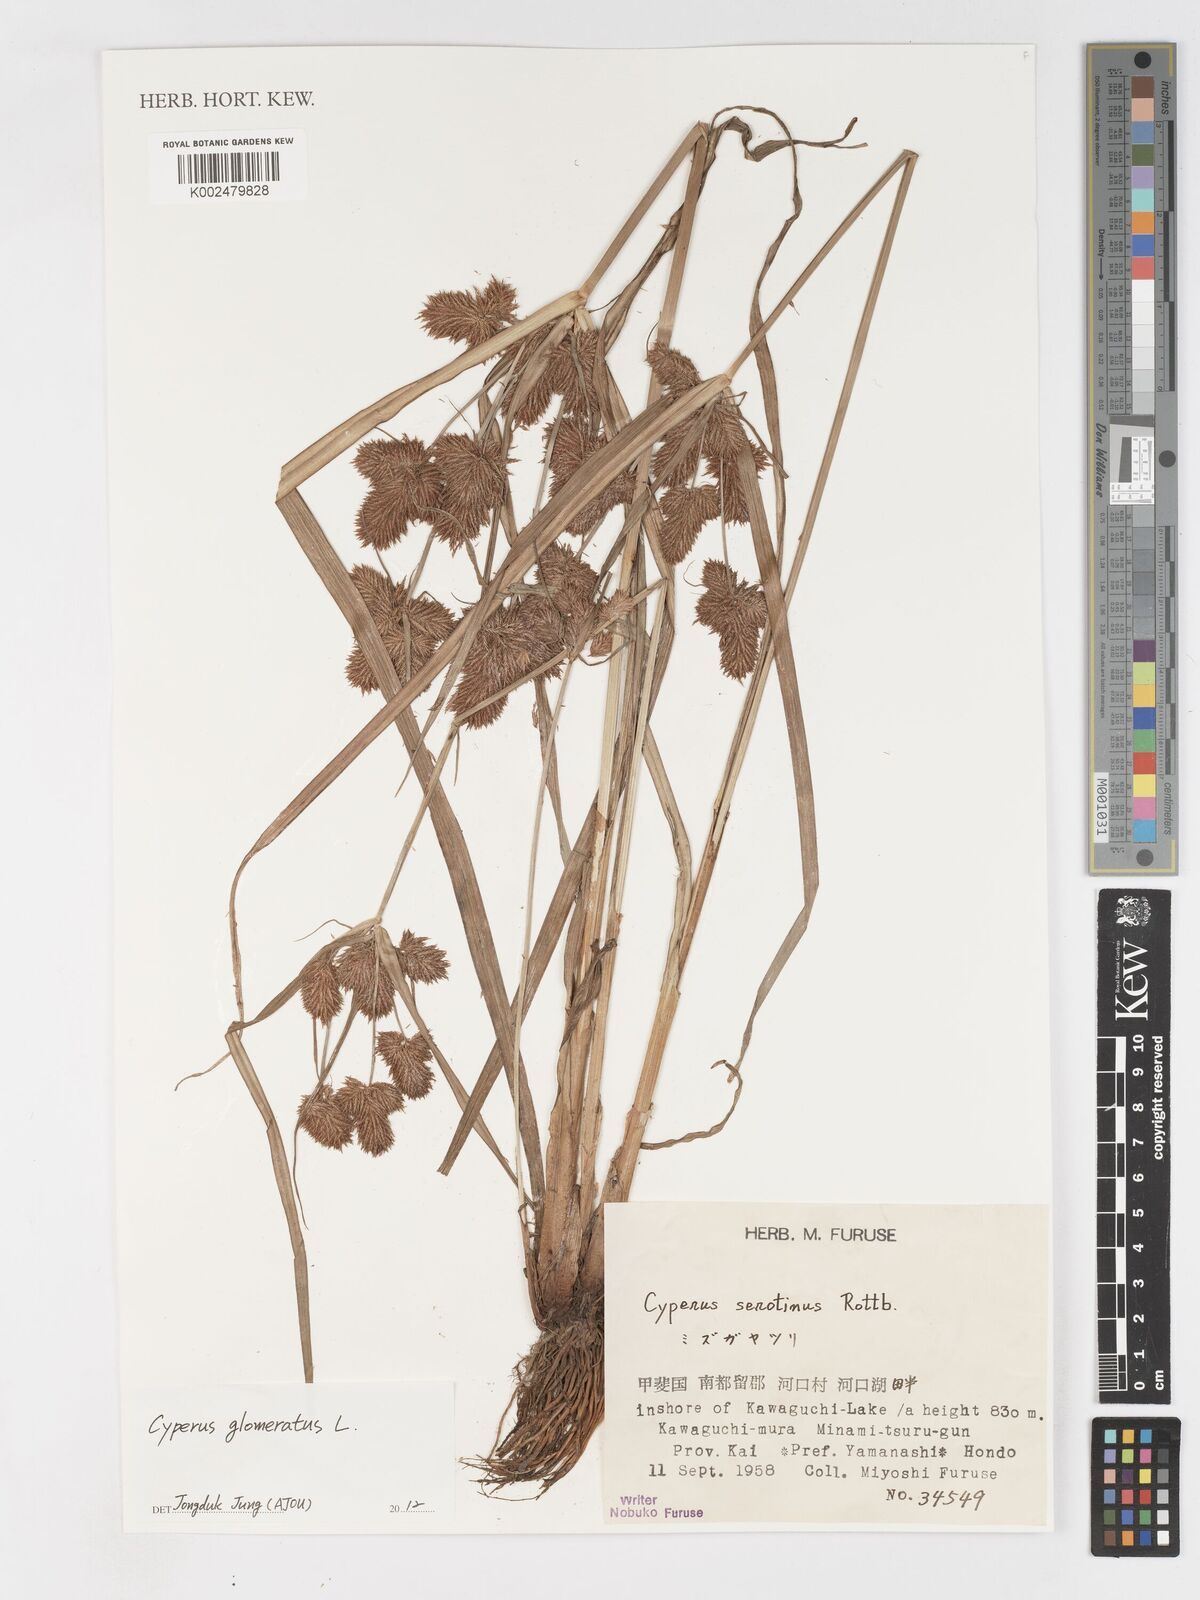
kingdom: Plantae
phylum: Tracheophyta
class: Liliopsida
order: Poales
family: Cyperaceae
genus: Cyperus
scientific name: Cyperus glomeratus
